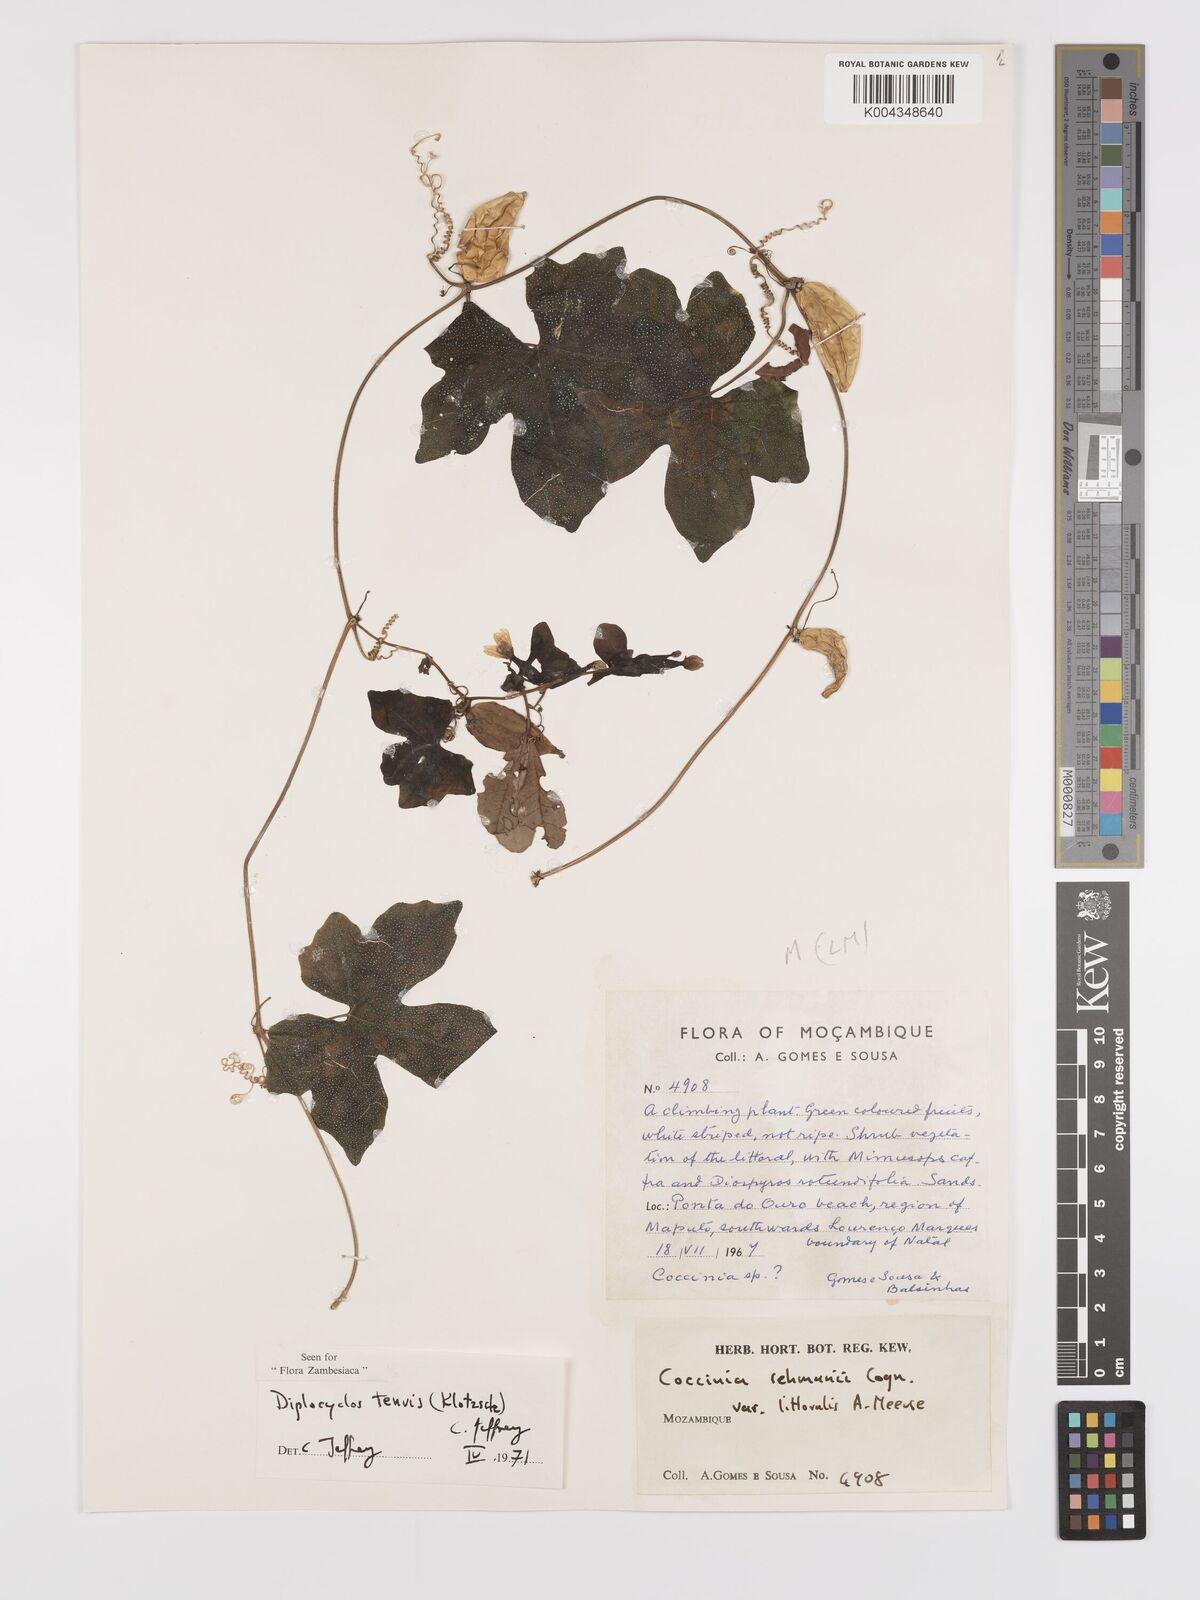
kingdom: Plantae
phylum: Tracheophyta
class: Magnoliopsida
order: Cucurbitales
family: Cucurbitaceae
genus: Diplocyclos
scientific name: Diplocyclos tenuis
